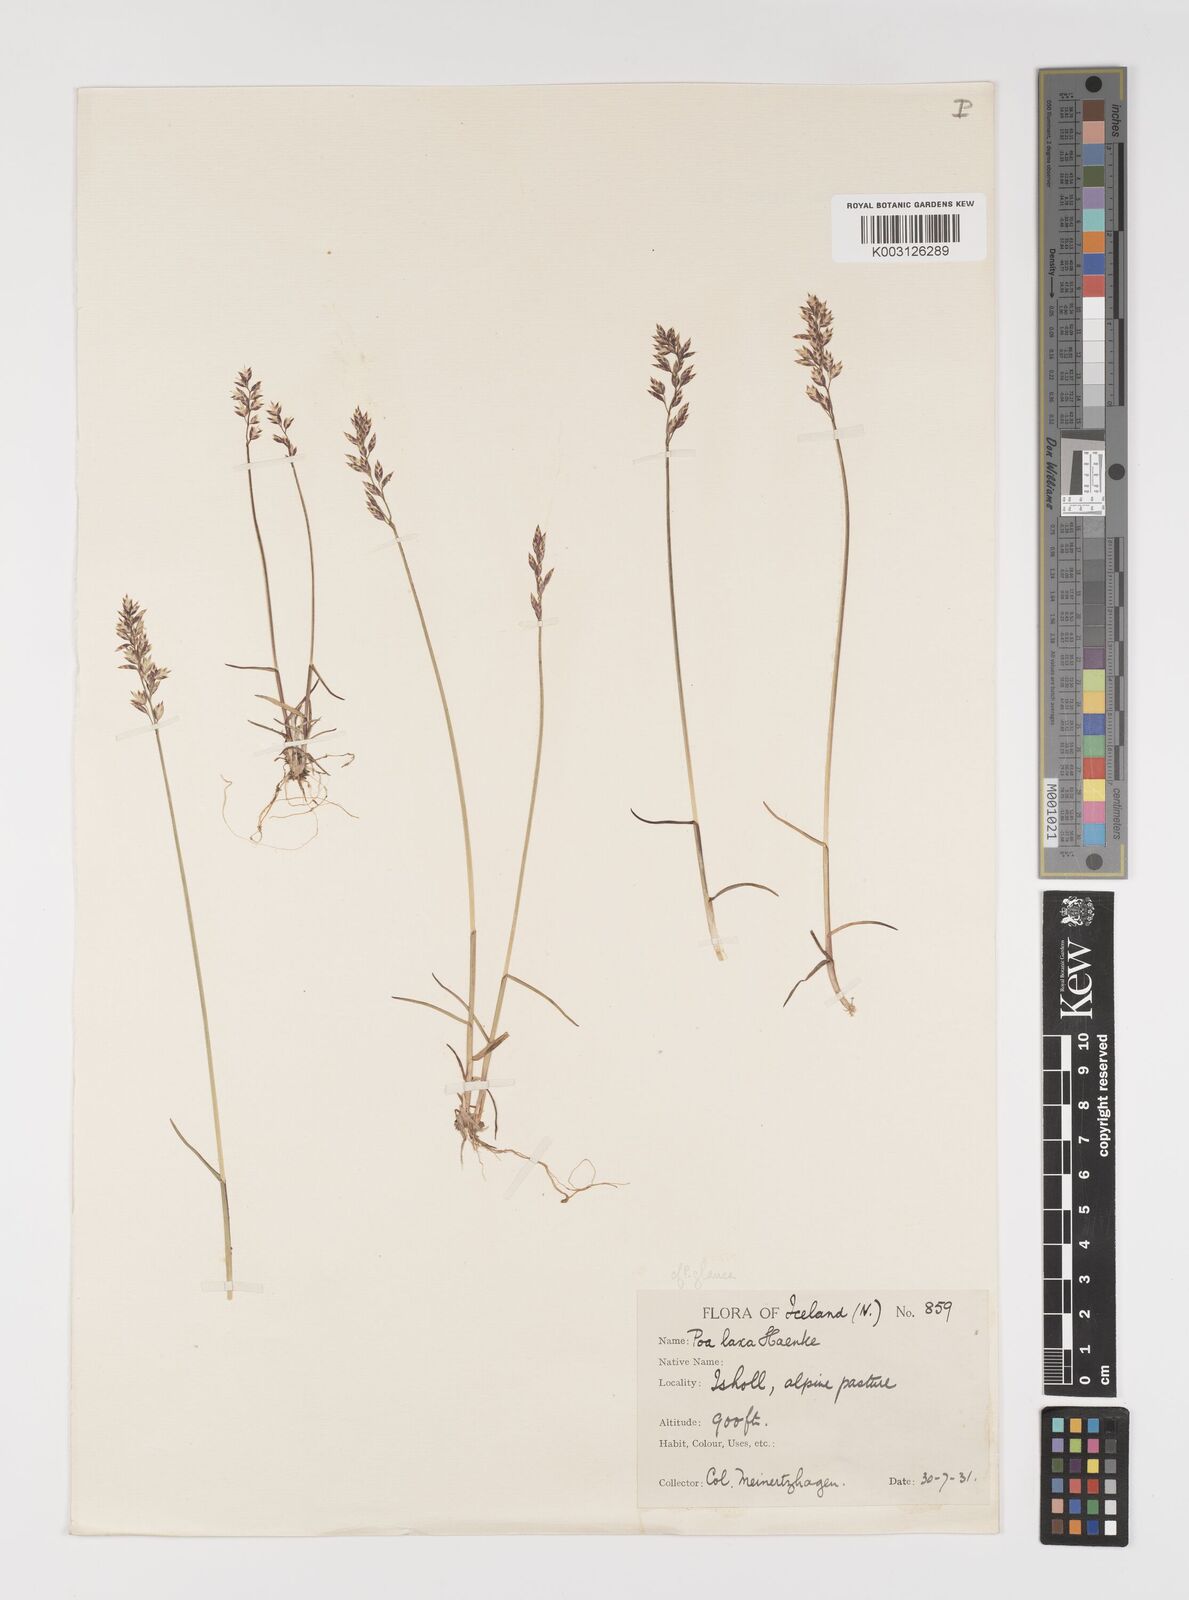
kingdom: Plantae
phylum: Tracheophyta
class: Liliopsida
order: Poales
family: Poaceae
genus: Poa
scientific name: Poa glauca
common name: Glaucous bluegrass
